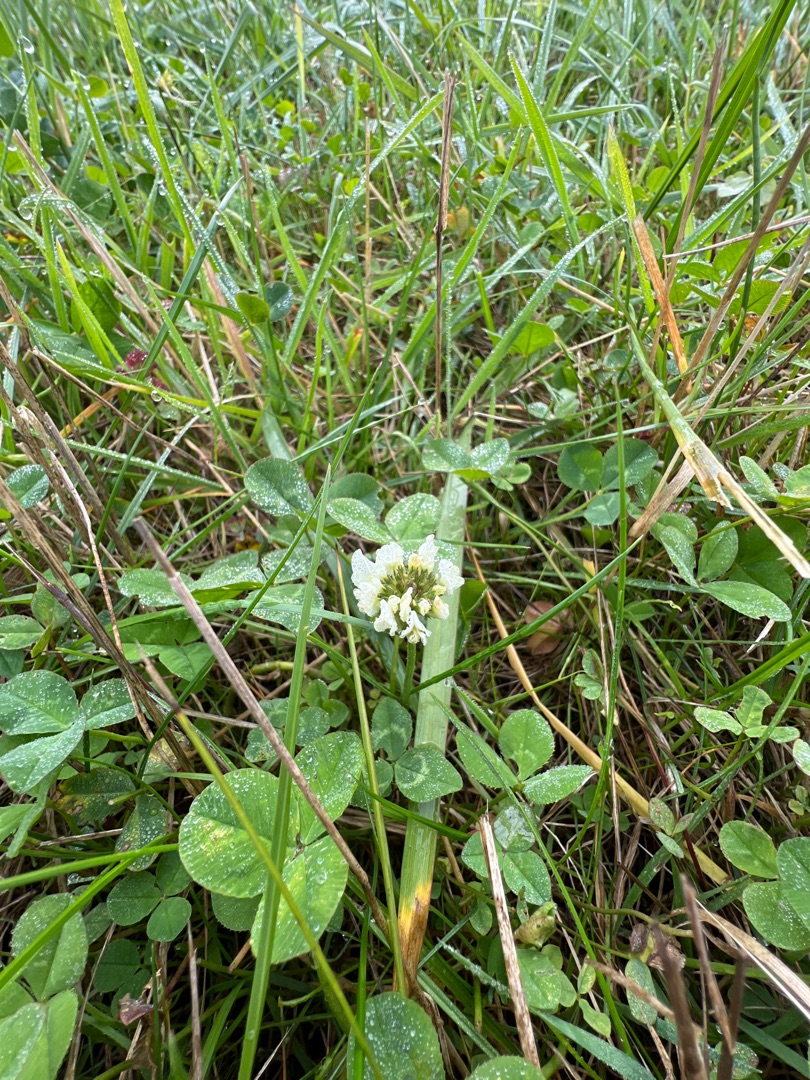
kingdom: Plantae
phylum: Tracheophyta
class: Magnoliopsida
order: Fabales
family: Fabaceae
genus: Trifolium
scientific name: Trifolium repens
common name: Hvid-kløver
